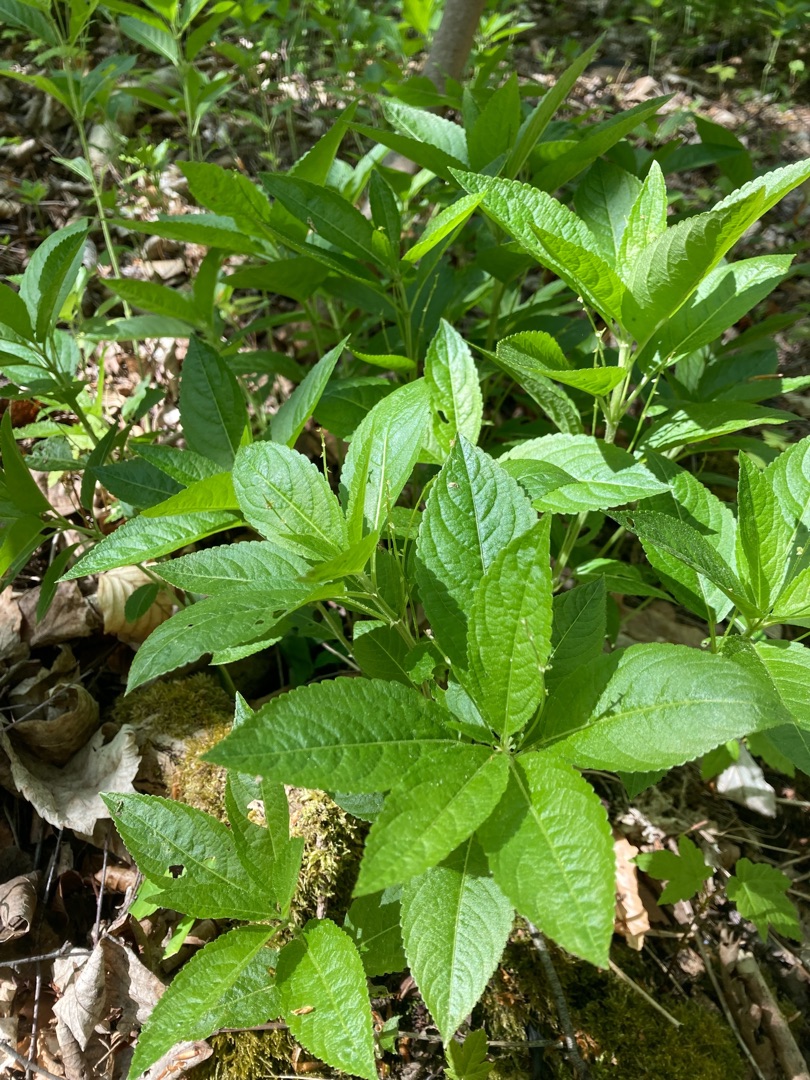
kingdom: Plantae
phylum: Tracheophyta
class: Magnoliopsida
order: Malpighiales
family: Euphorbiaceae
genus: Mercurialis
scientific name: Mercurialis perennis
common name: Almindelig bingelurt
